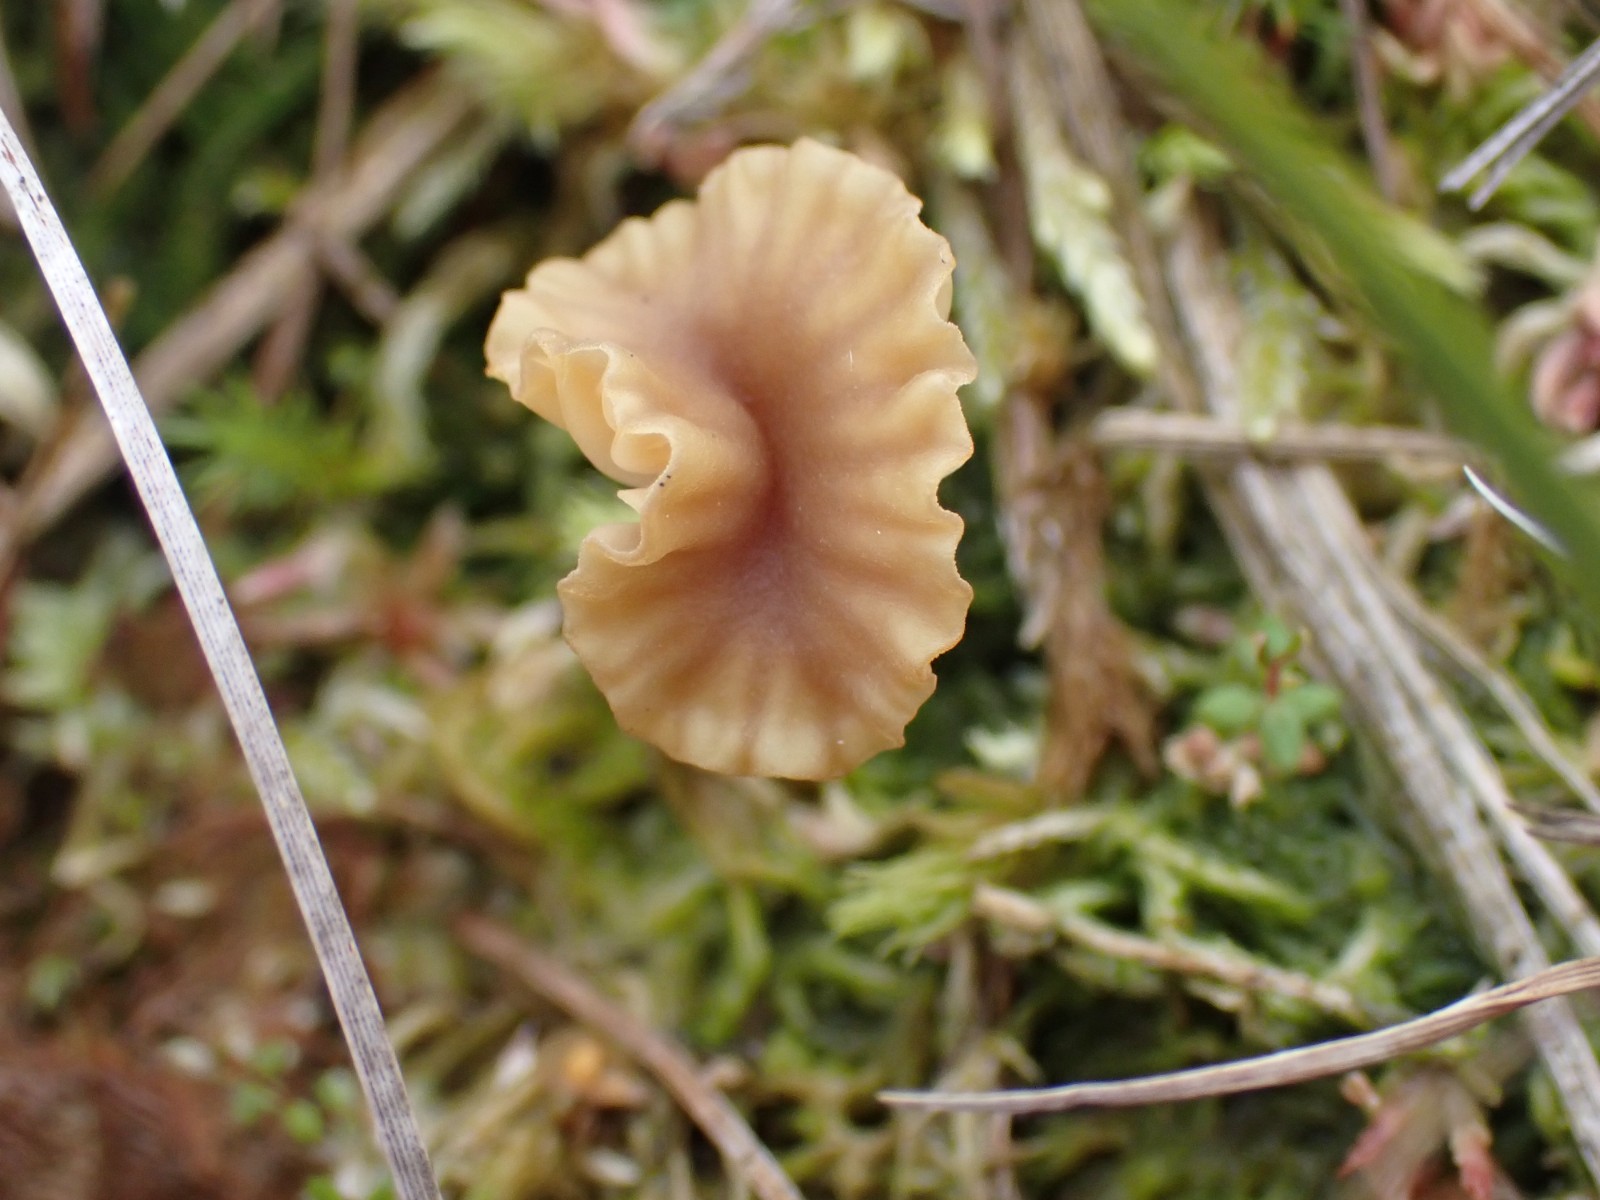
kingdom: Fungi
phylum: Basidiomycota
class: Agaricomycetes
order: Agaricales
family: Hygrophoraceae
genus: Lichenomphalia
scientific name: Lichenomphalia umbellifera
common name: tørve-lavhat
